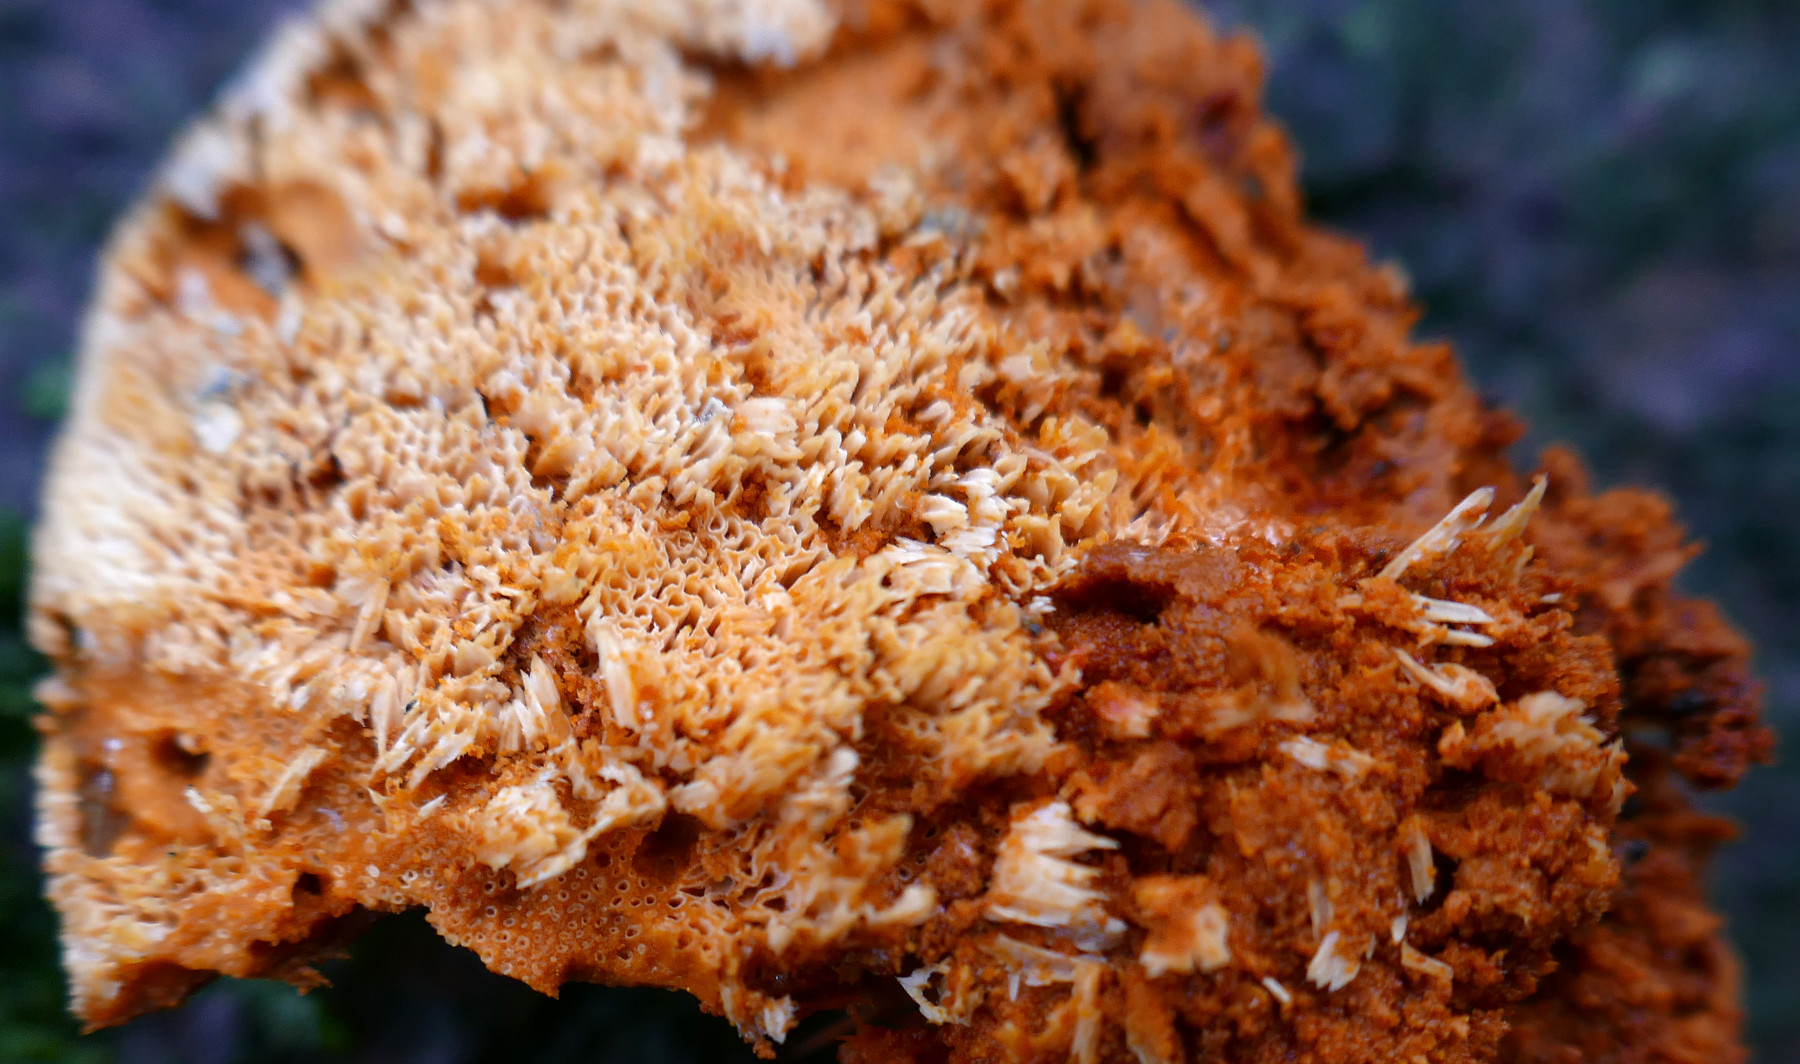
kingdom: Fungi
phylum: Basidiomycota
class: Agaricomycetes
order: Polyporales
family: Pycnoporellaceae
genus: Pycnoporellus
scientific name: Pycnoporellus fulgens
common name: flammeporesvamp
